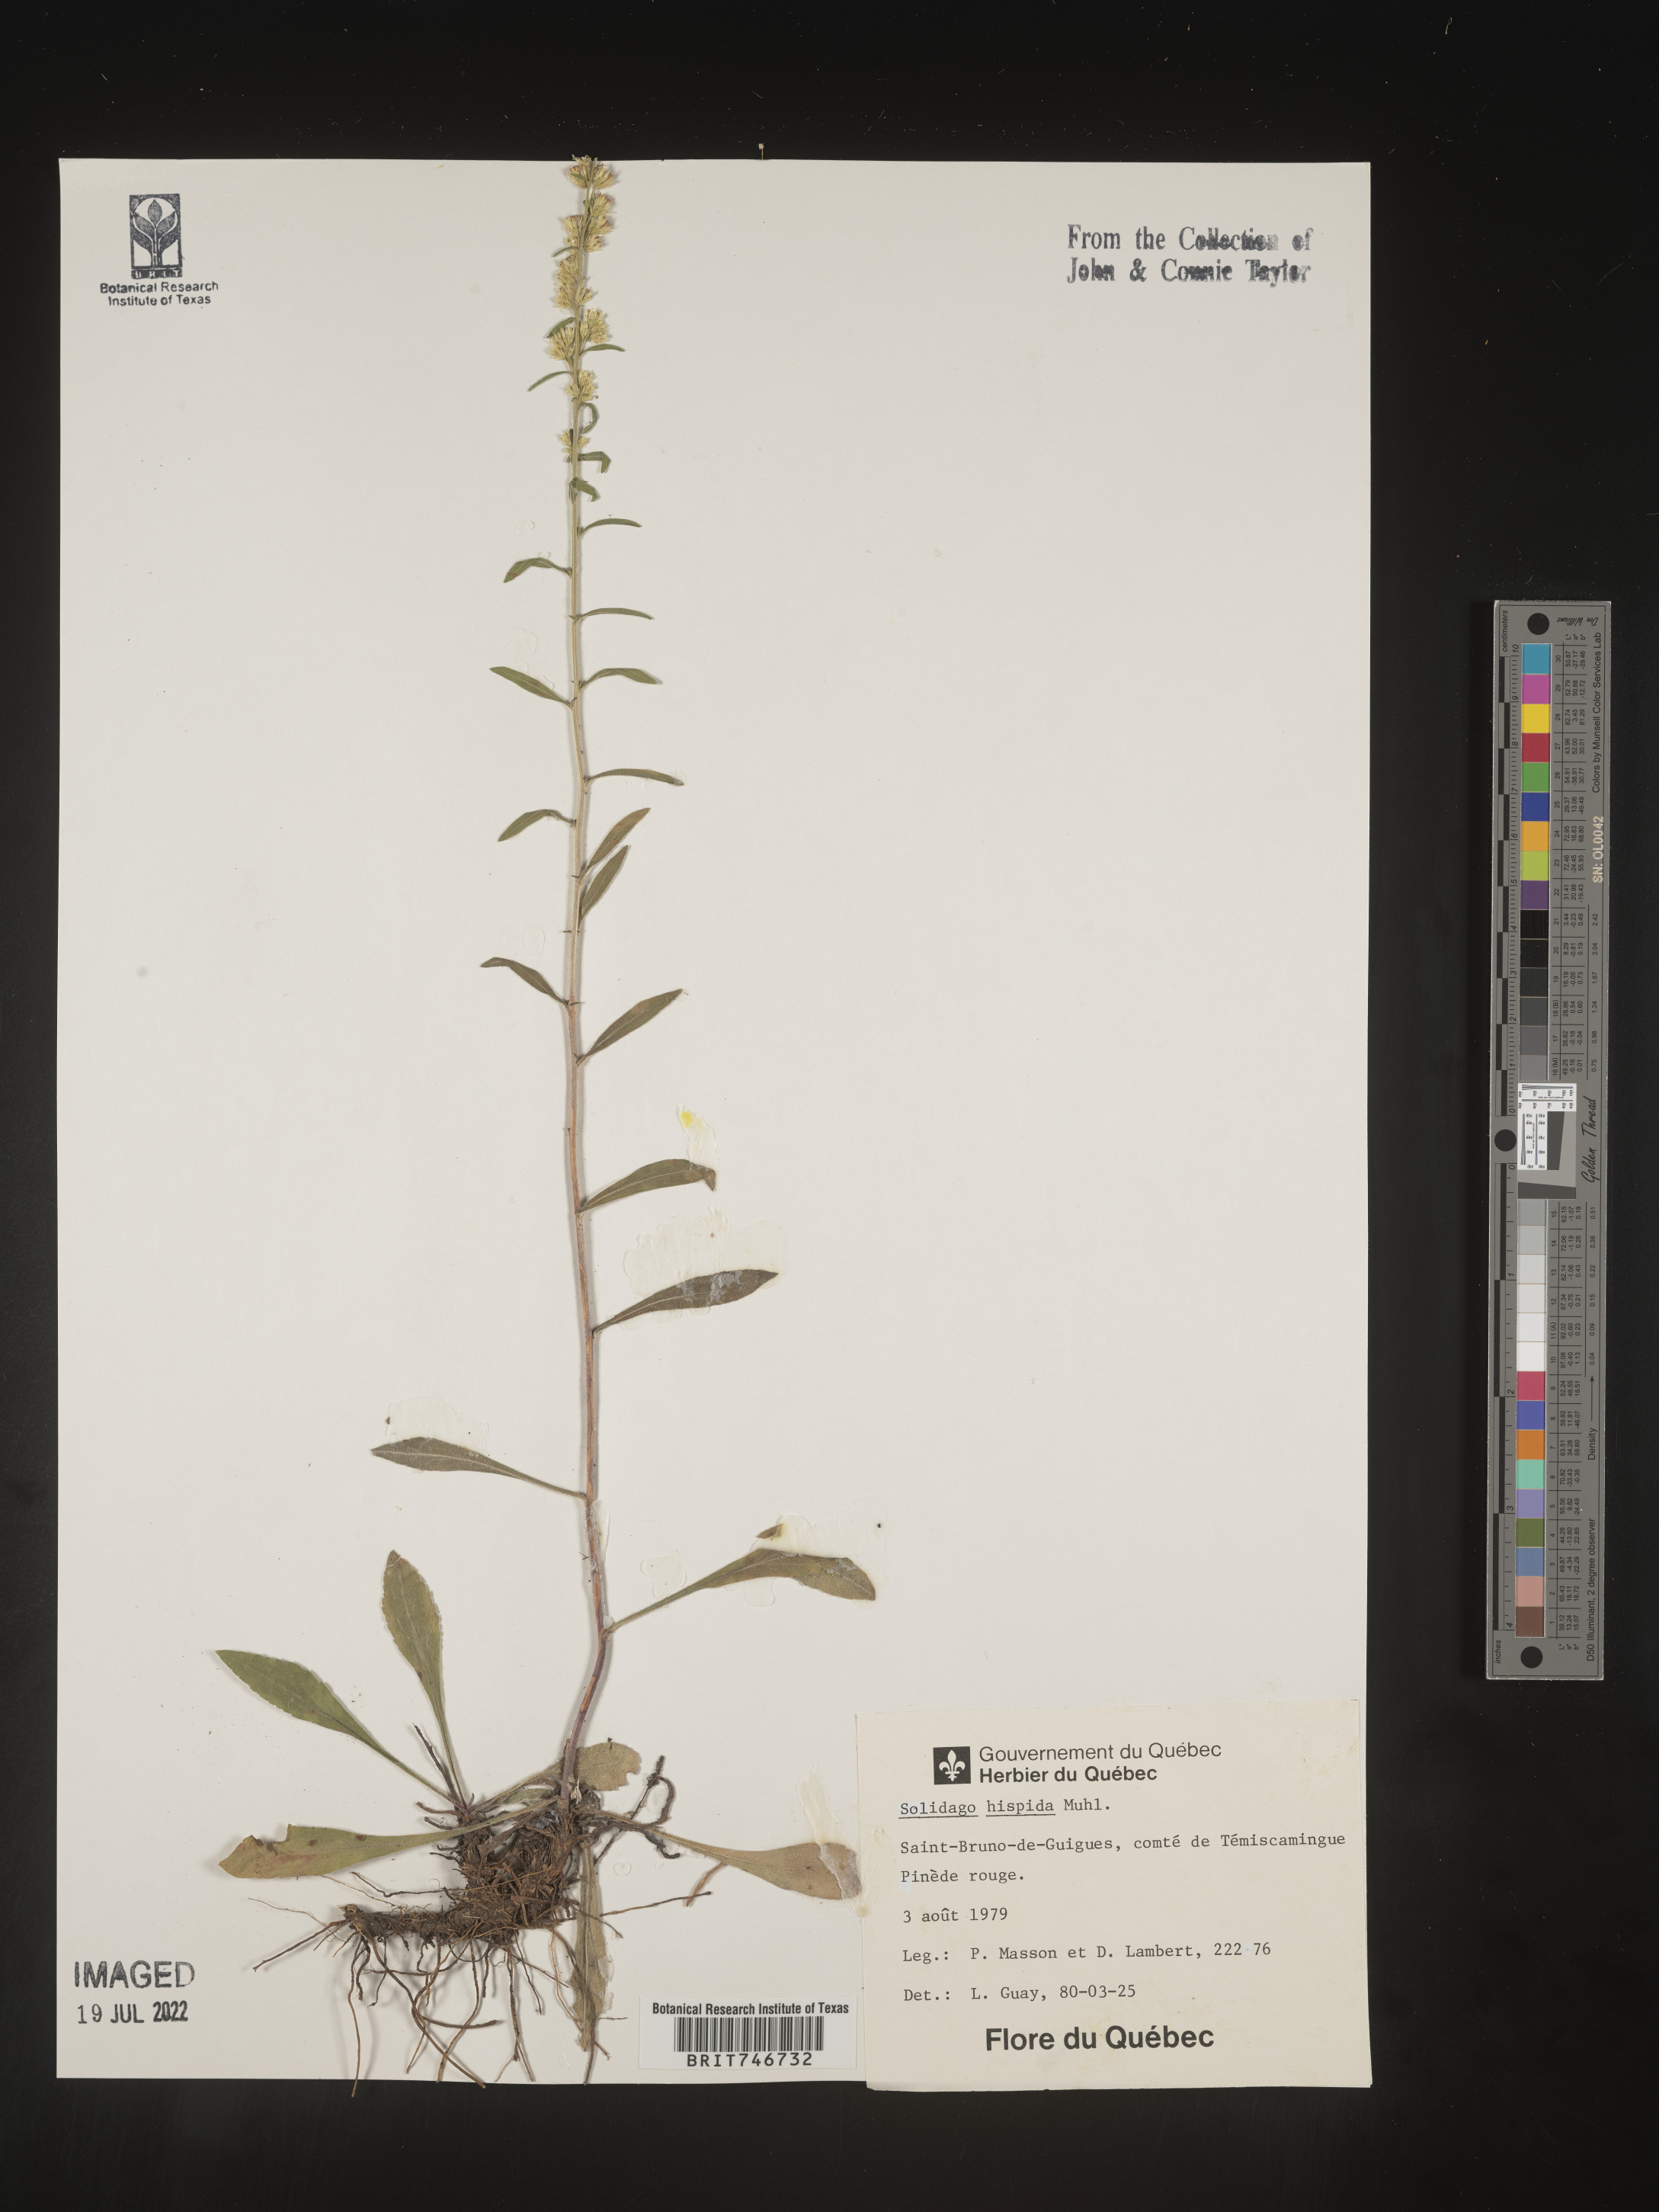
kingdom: Plantae
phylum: Tracheophyta
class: Magnoliopsida
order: Asterales
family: Asteraceae
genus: Solidago
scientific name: Solidago hispida
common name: Hairy goldenrod
